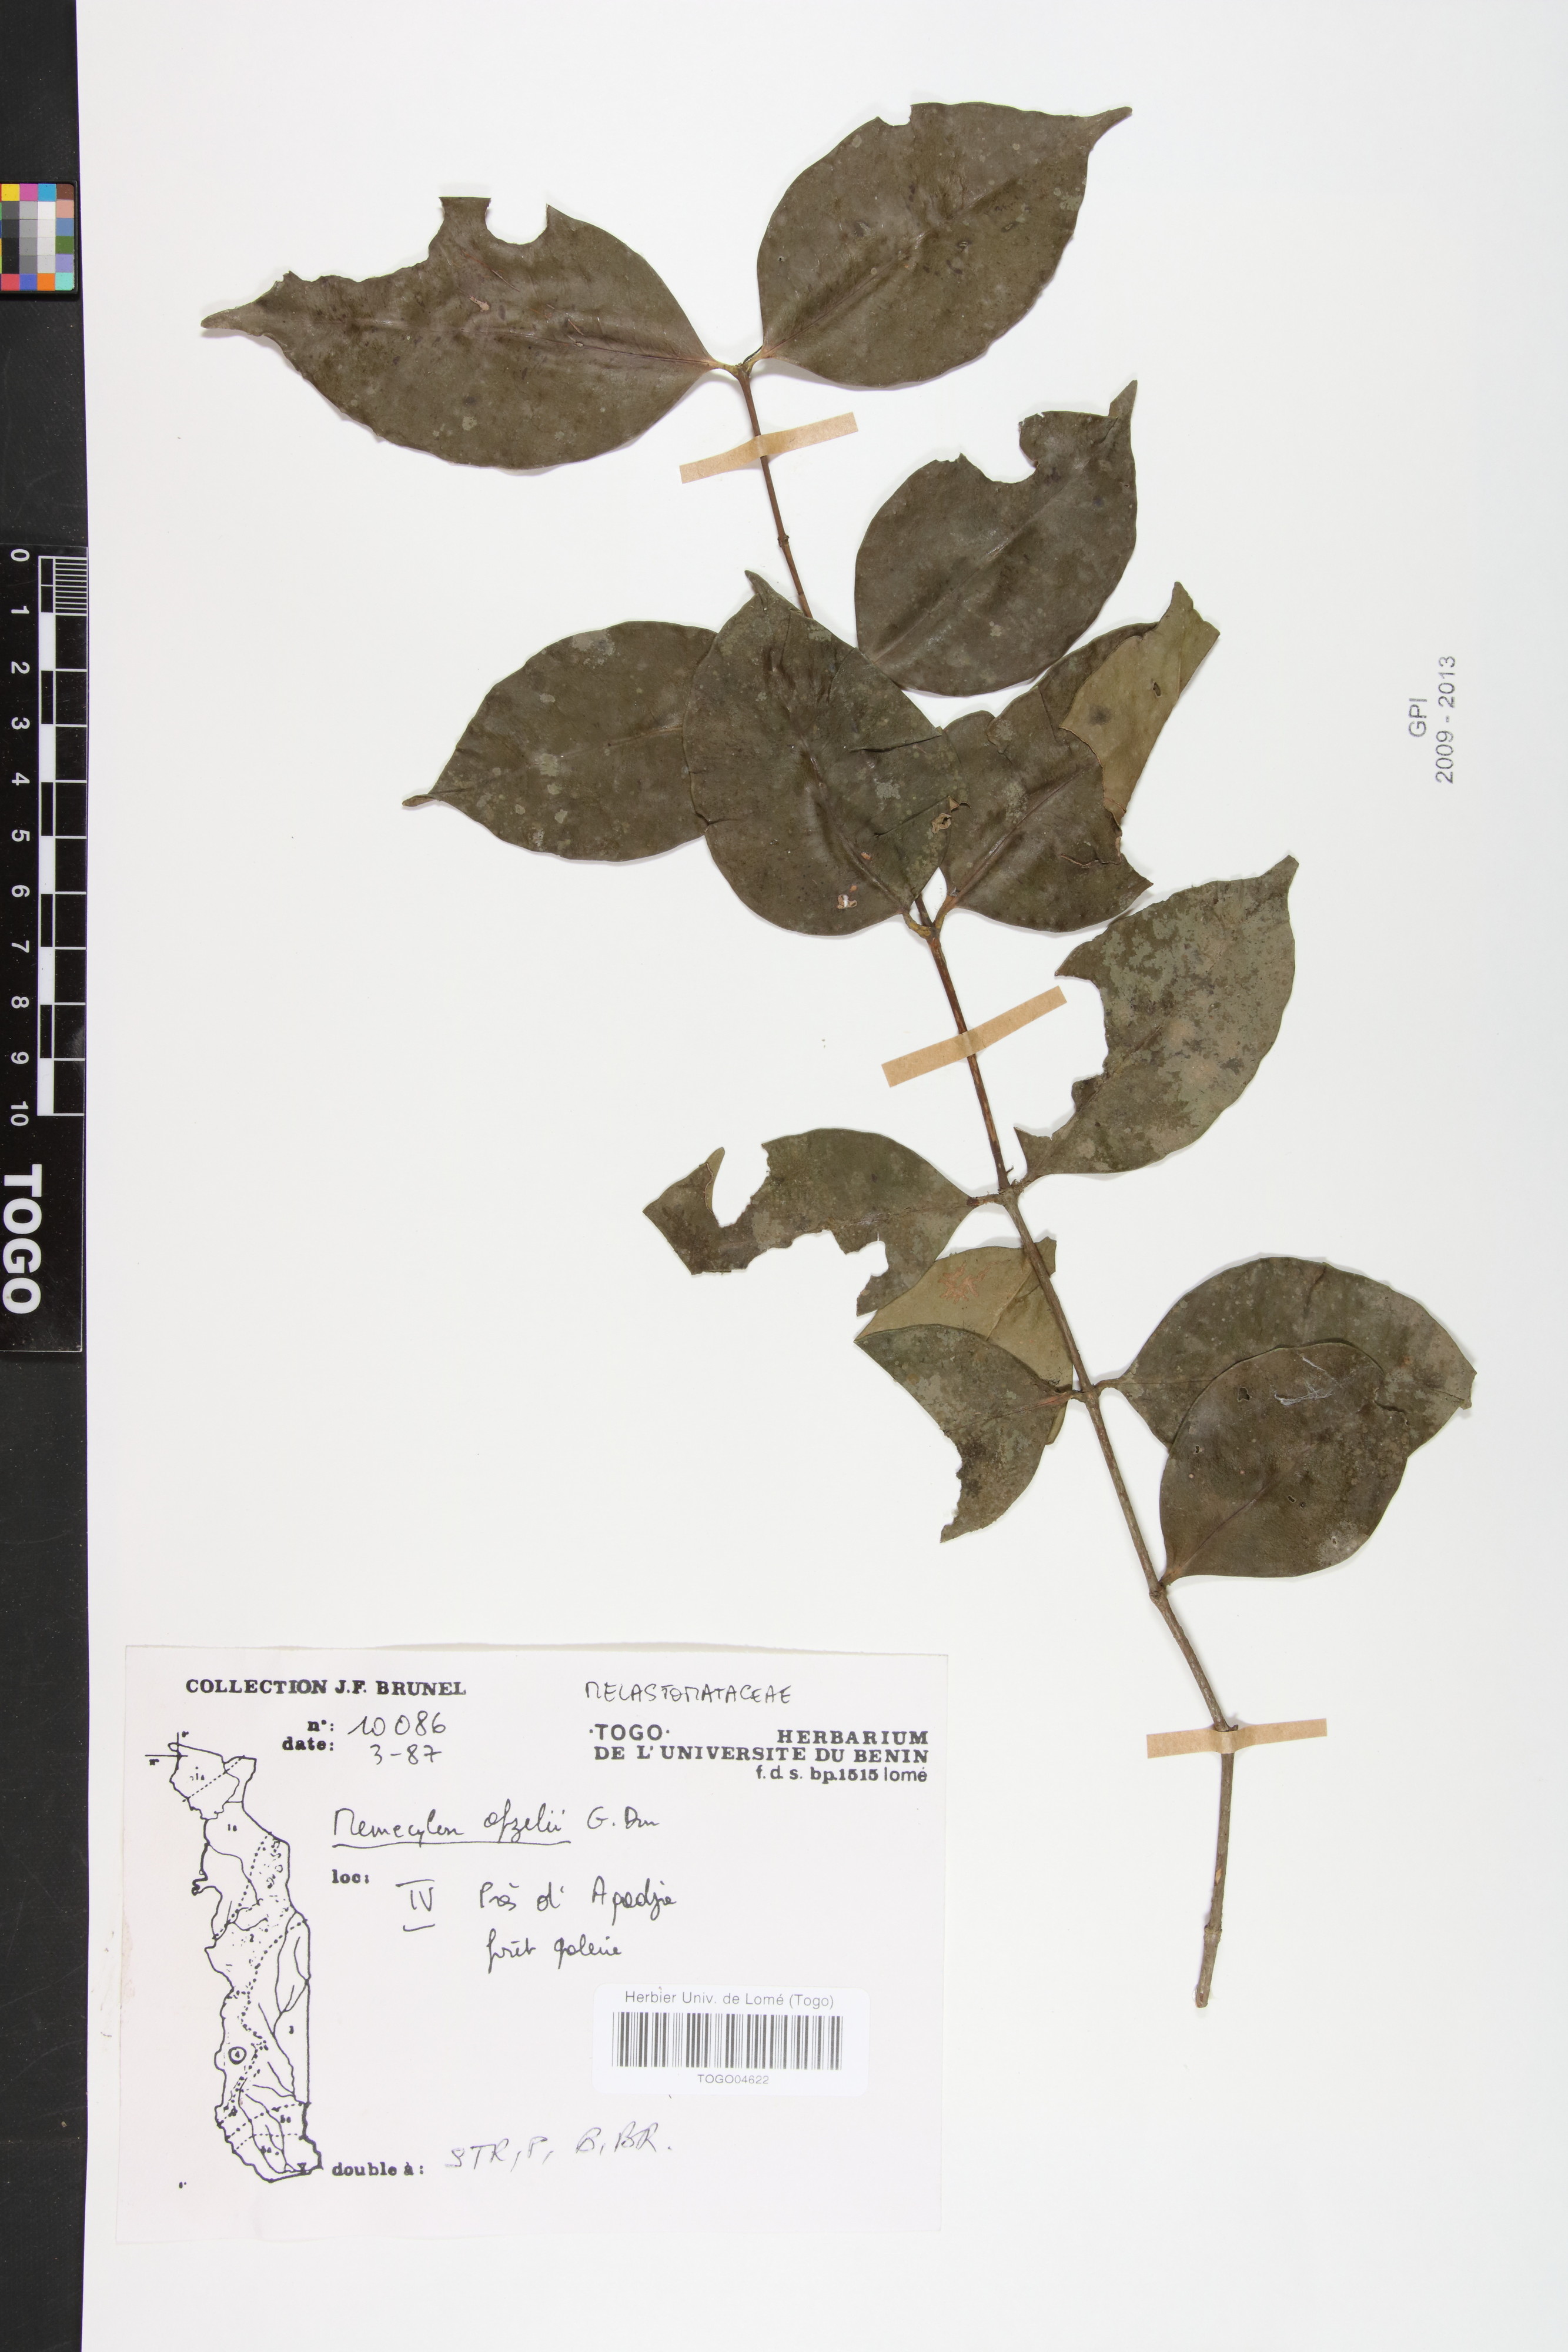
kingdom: Plantae
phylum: Tracheophyta
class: Magnoliopsida
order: Myrtales
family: Melastomataceae
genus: Memecylon
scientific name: Memecylon afzelii
